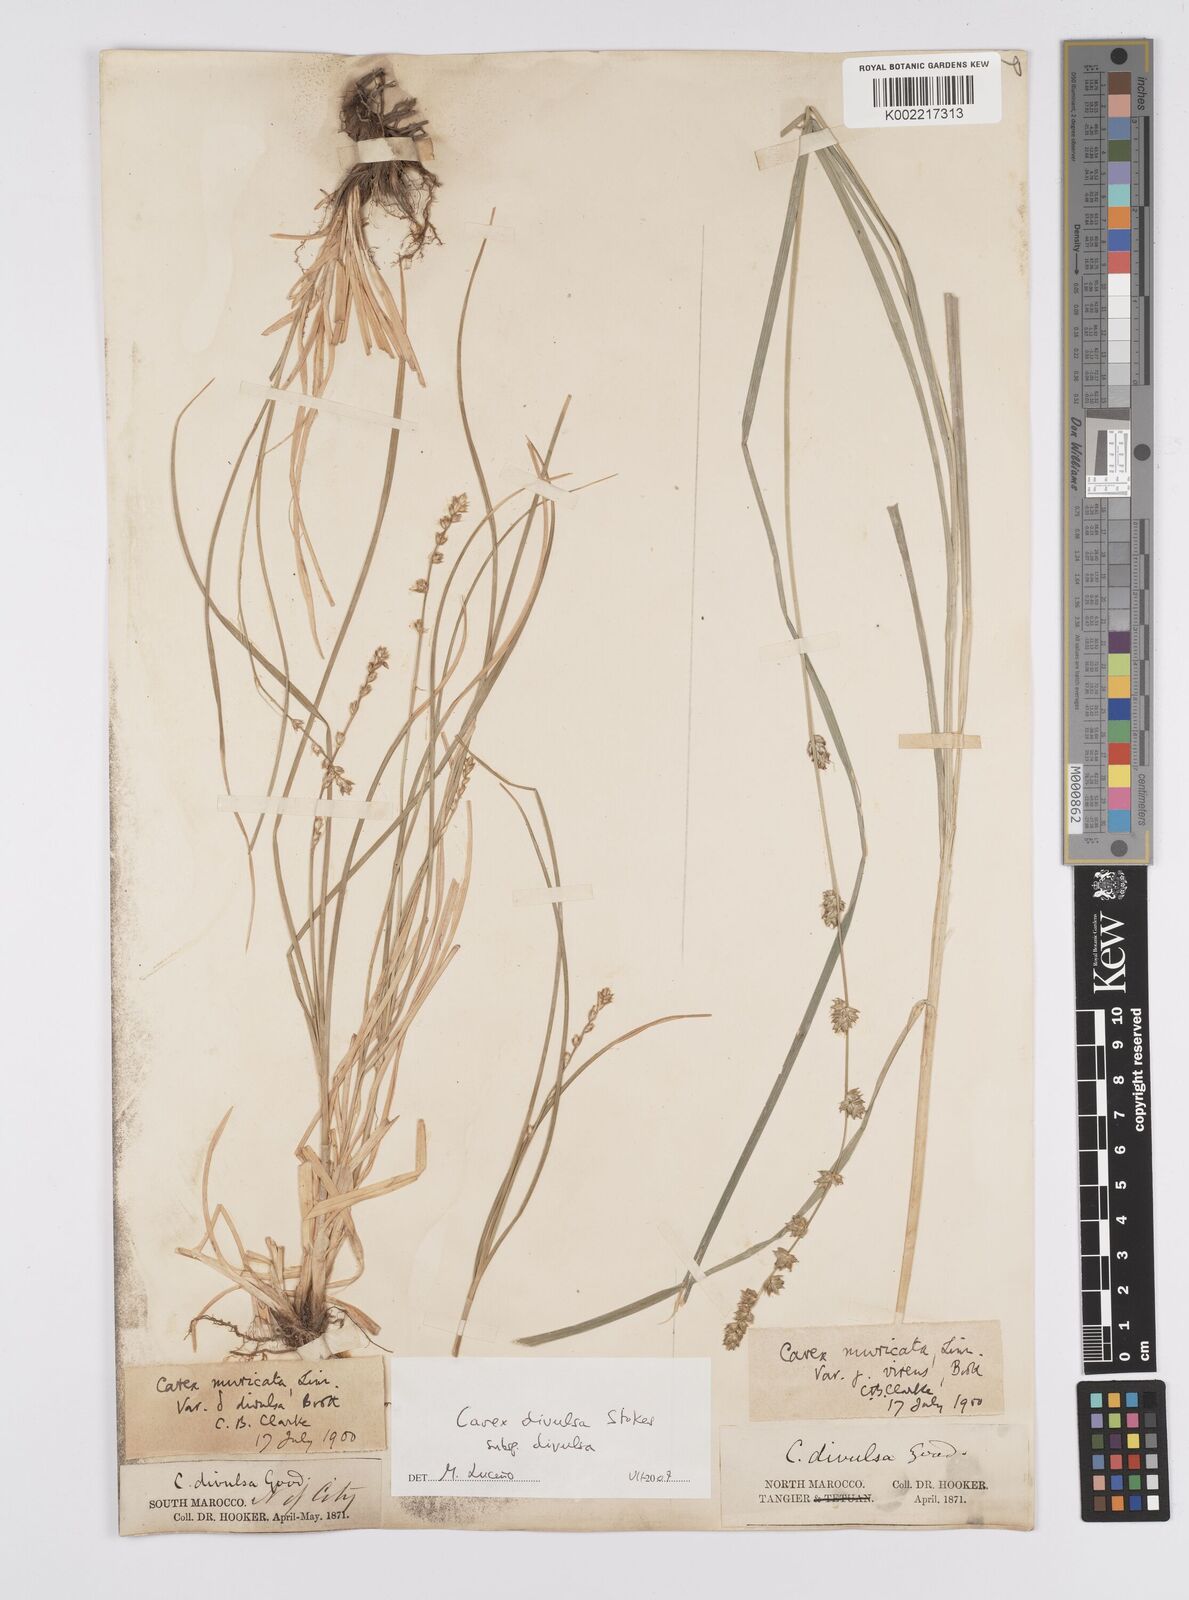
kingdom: Plantae
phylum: Tracheophyta
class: Liliopsida
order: Poales
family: Cyperaceae
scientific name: Cyperaceae
